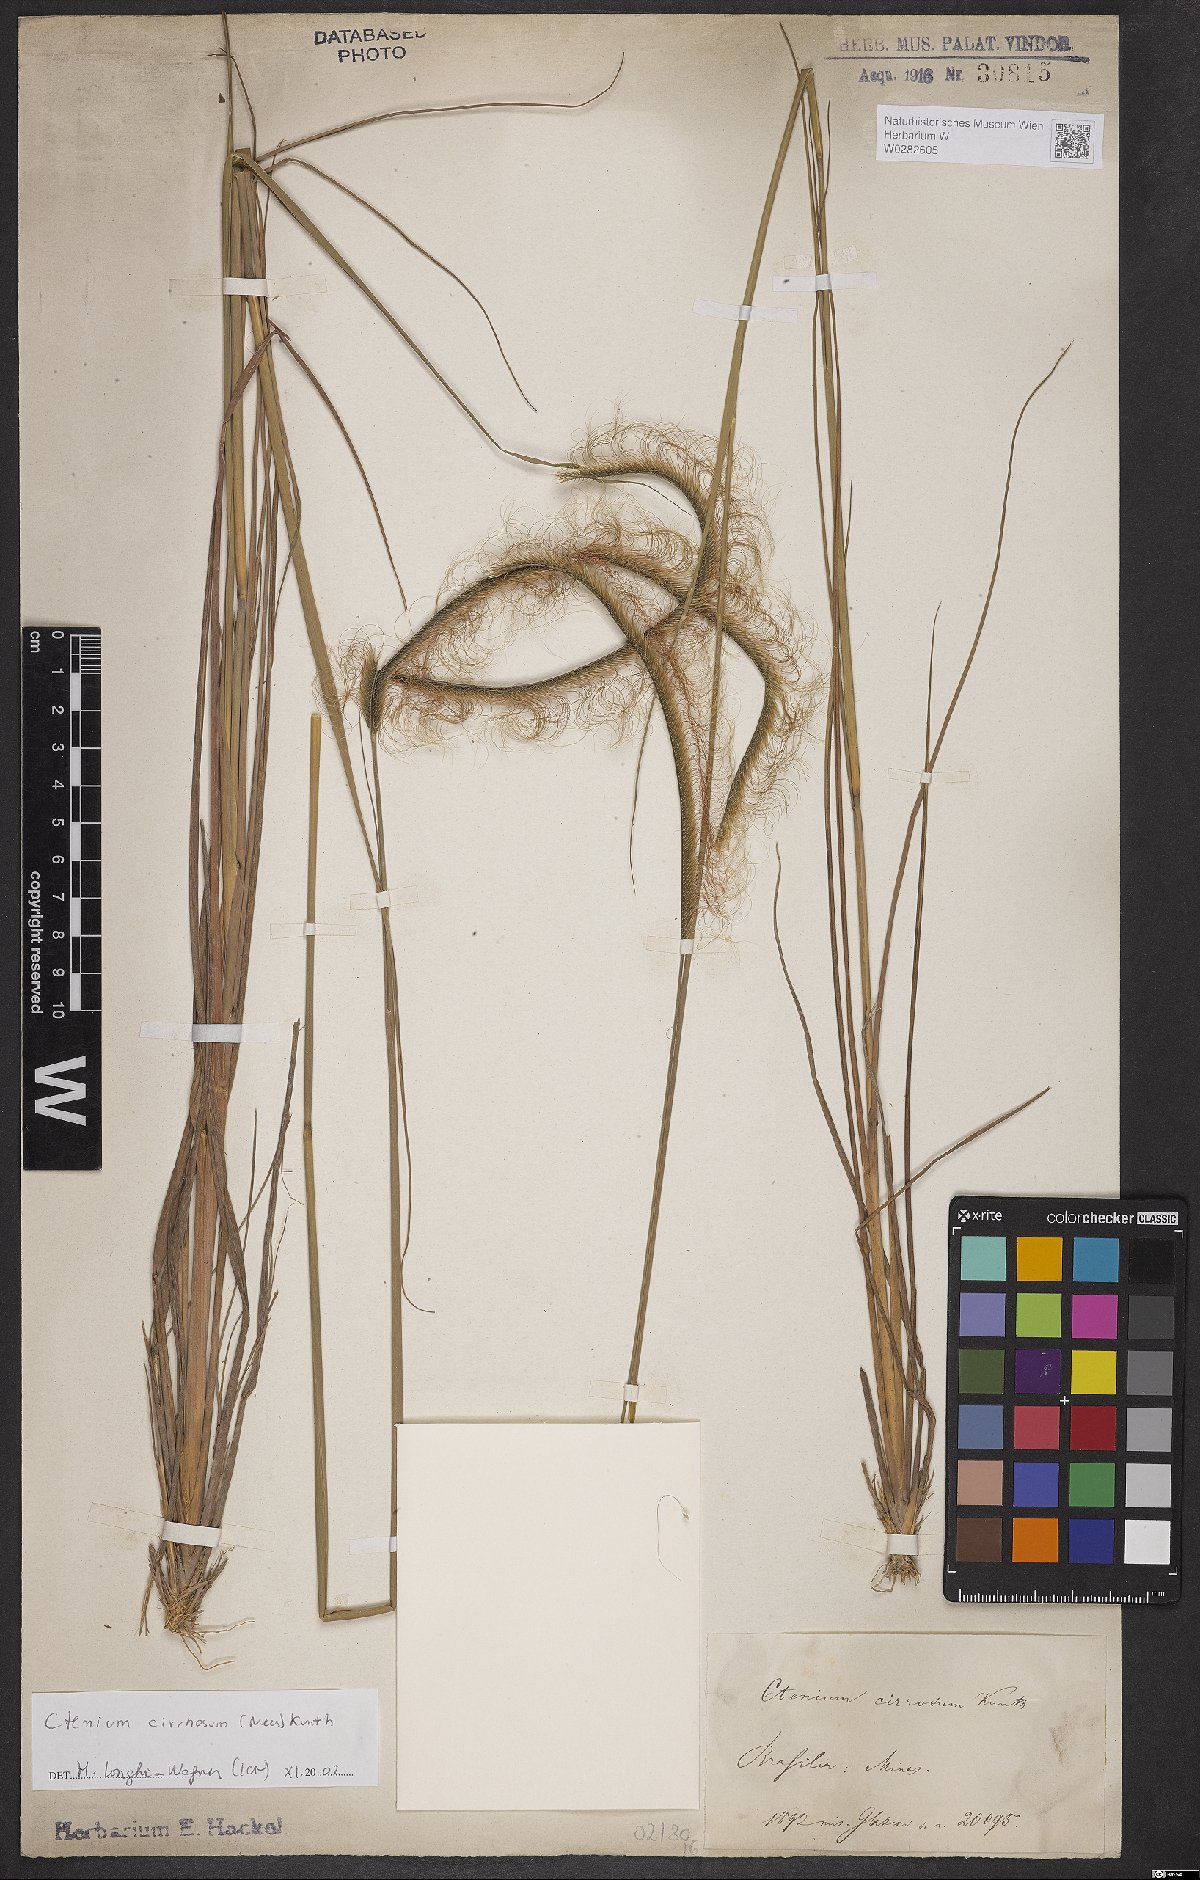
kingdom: Plantae
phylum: Tracheophyta
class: Liliopsida
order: Poales
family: Poaceae
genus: Ctenium
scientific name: Ctenium cirrhosum
